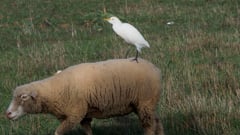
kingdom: Animalia
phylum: Chordata
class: Aves
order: Pelecaniformes
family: Ardeidae
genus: Bubulcus
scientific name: Bubulcus ibis
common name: Cattle egret
